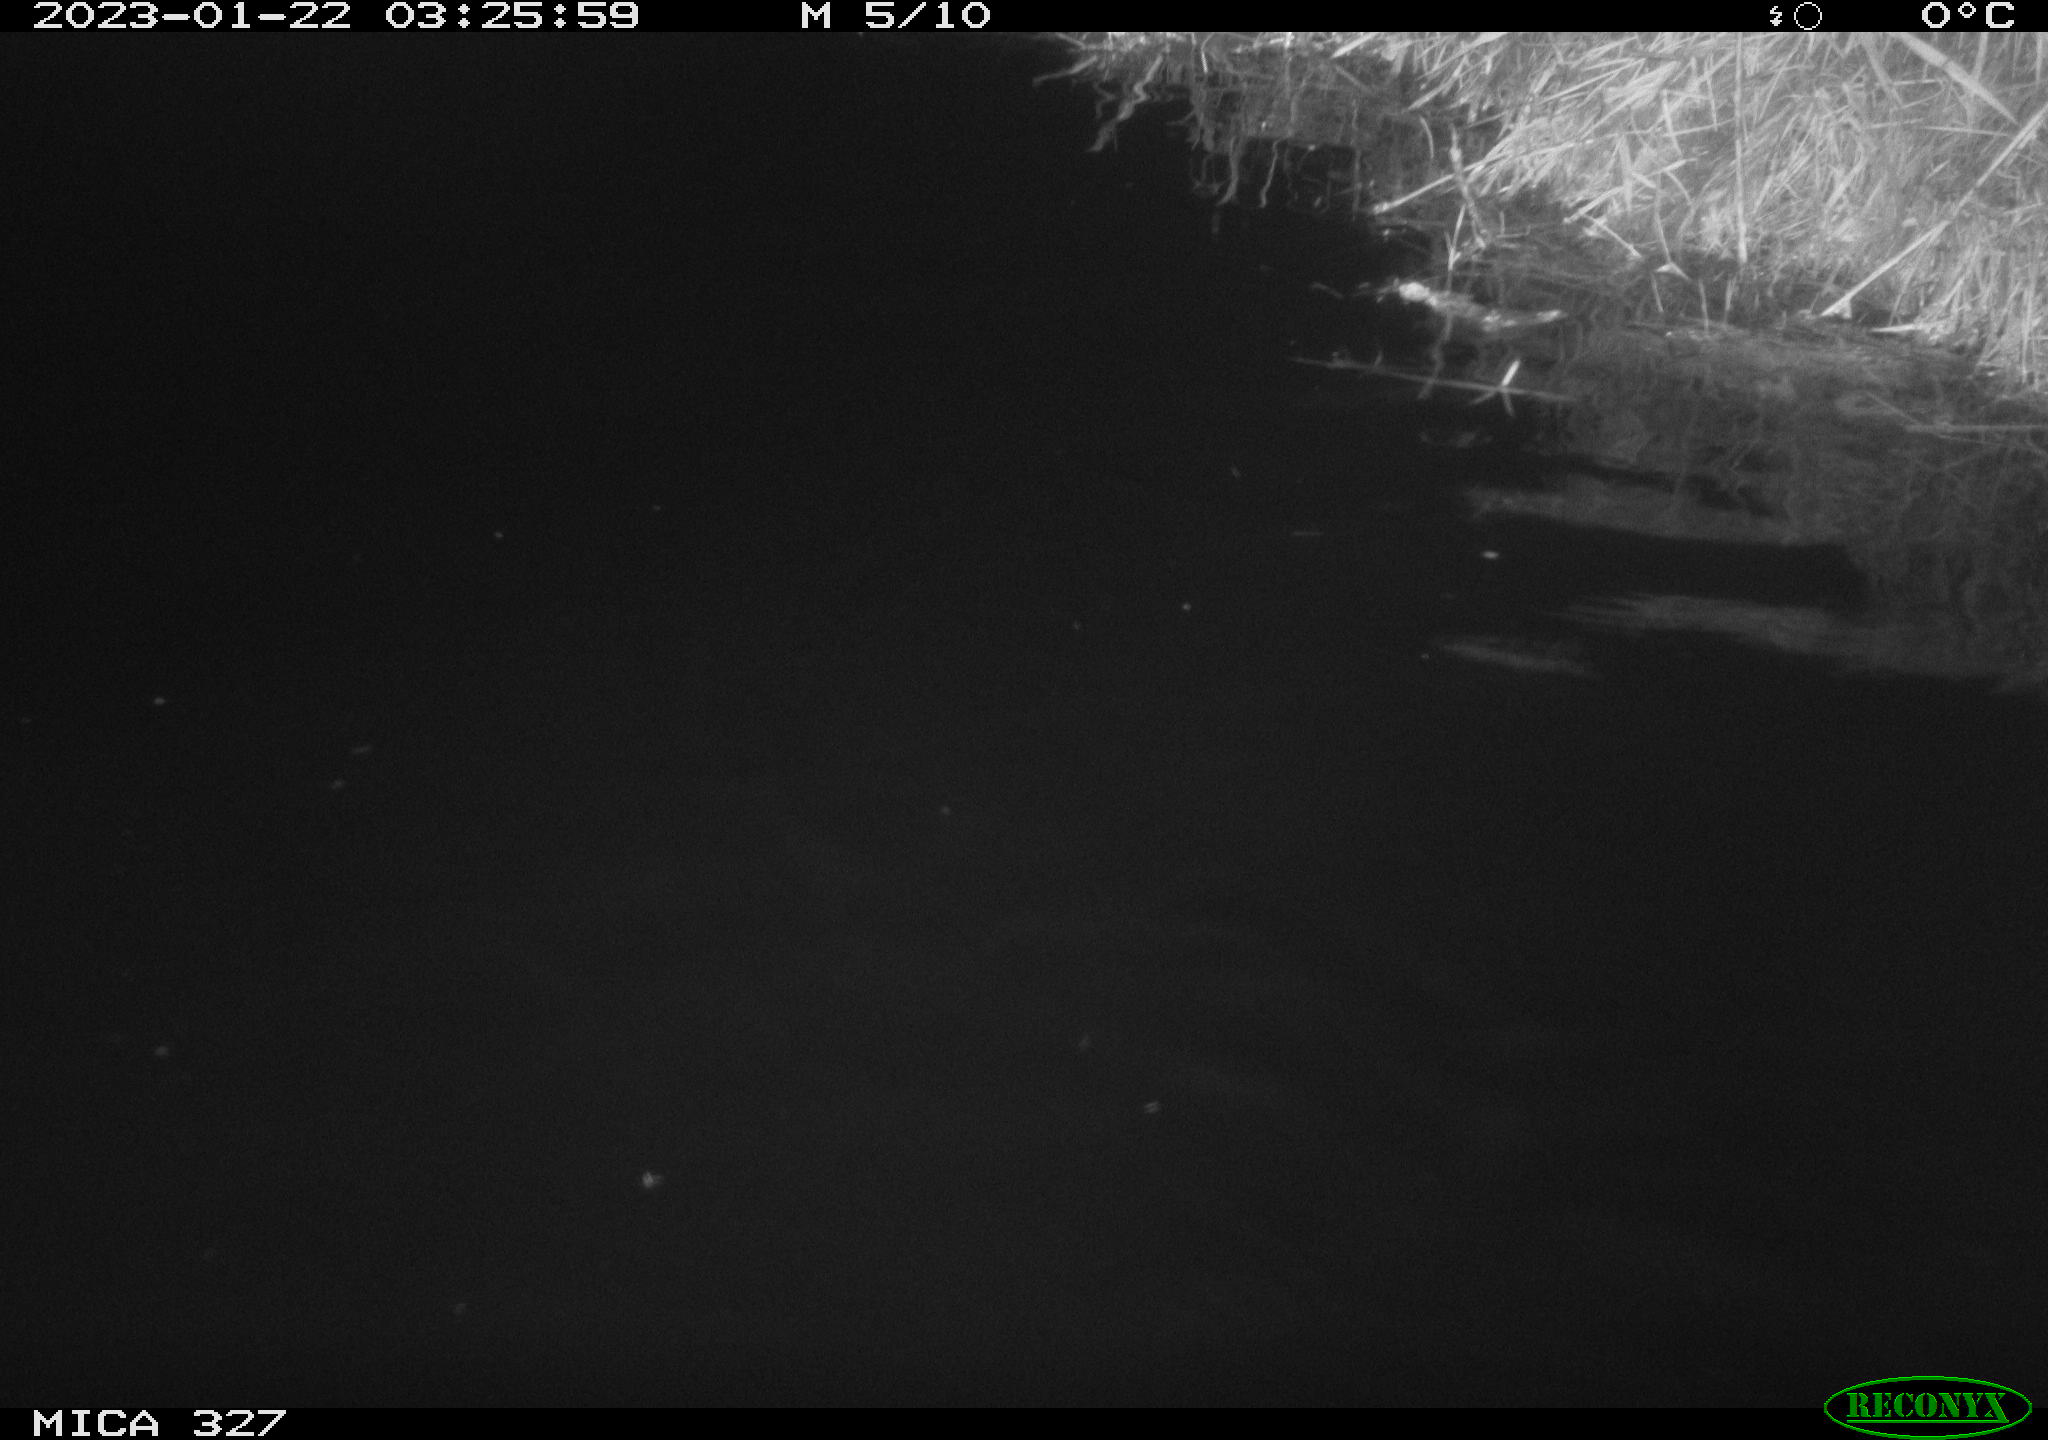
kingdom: Animalia
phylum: Chordata
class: Mammalia
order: Rodentia
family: Cricetidae
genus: Ondatra
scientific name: Ondatra zibethicus
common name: Muskrat
